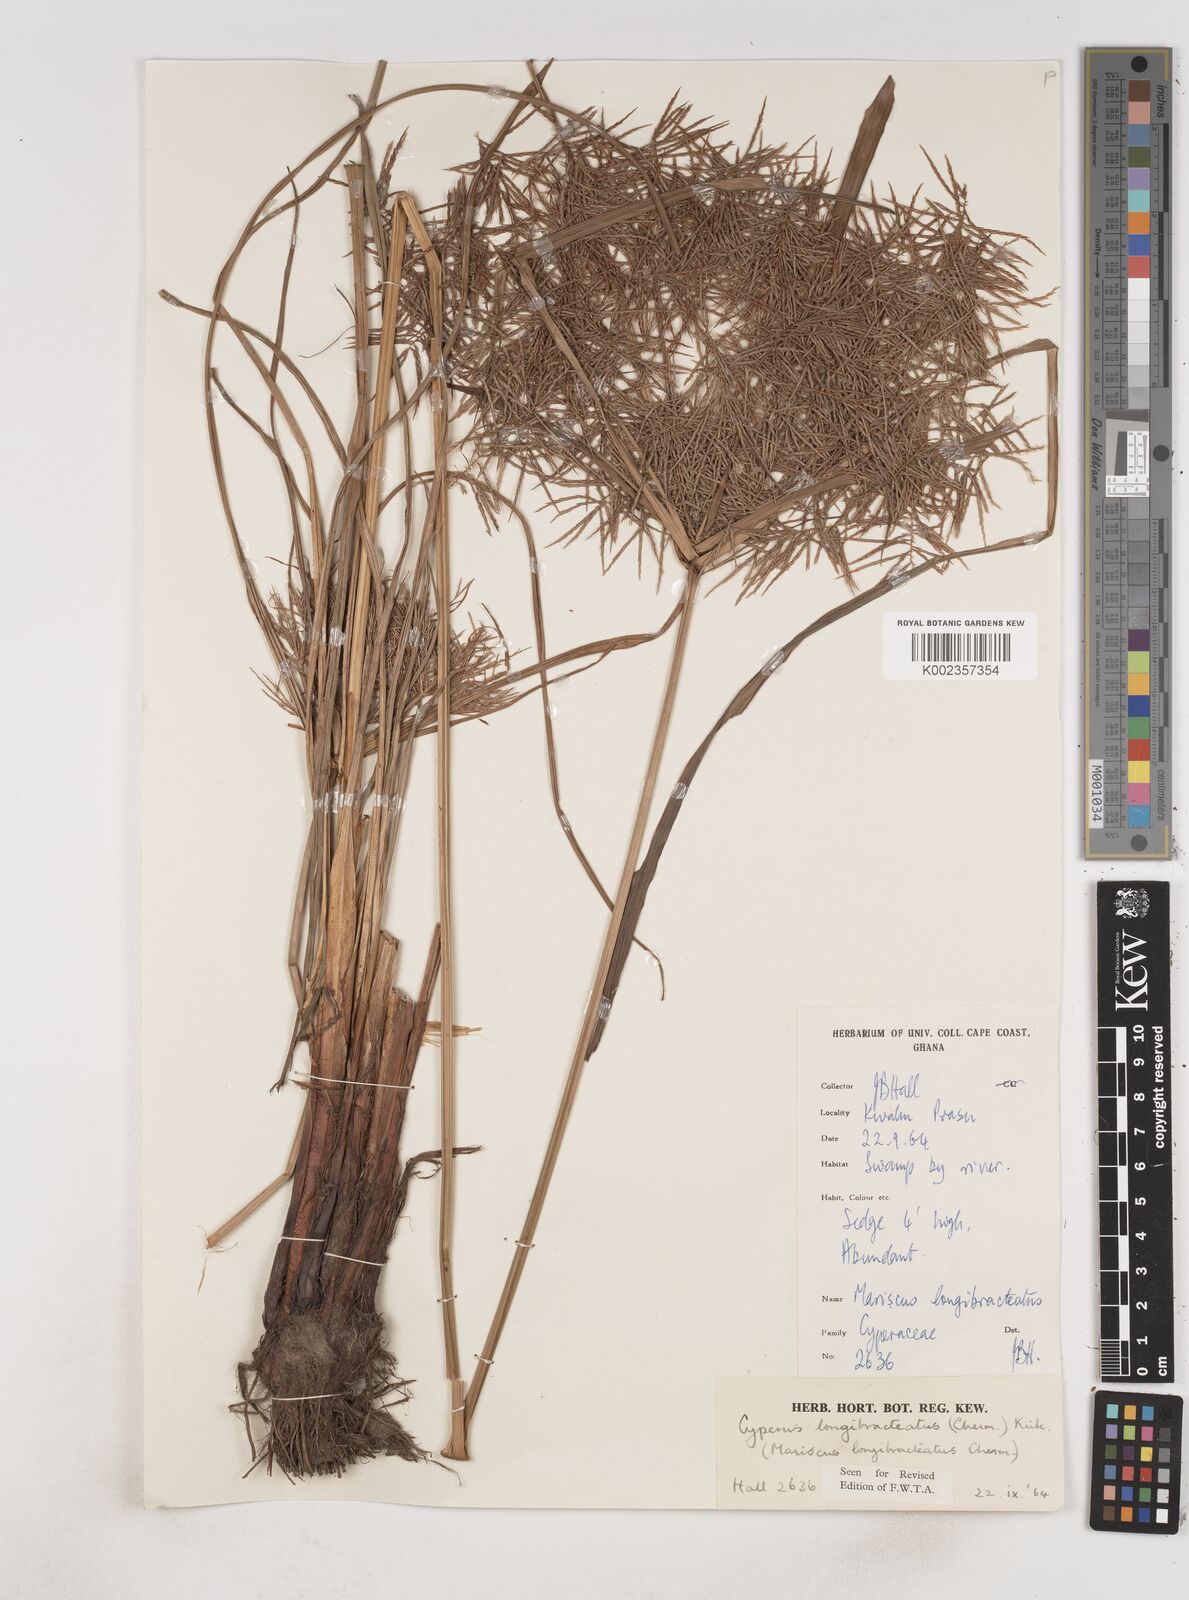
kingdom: Plantae
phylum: Tracheophyta
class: Liliopsida
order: Poales
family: Cyperaceae
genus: Cyperus
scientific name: Cyperus distans
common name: Slender cyperus
